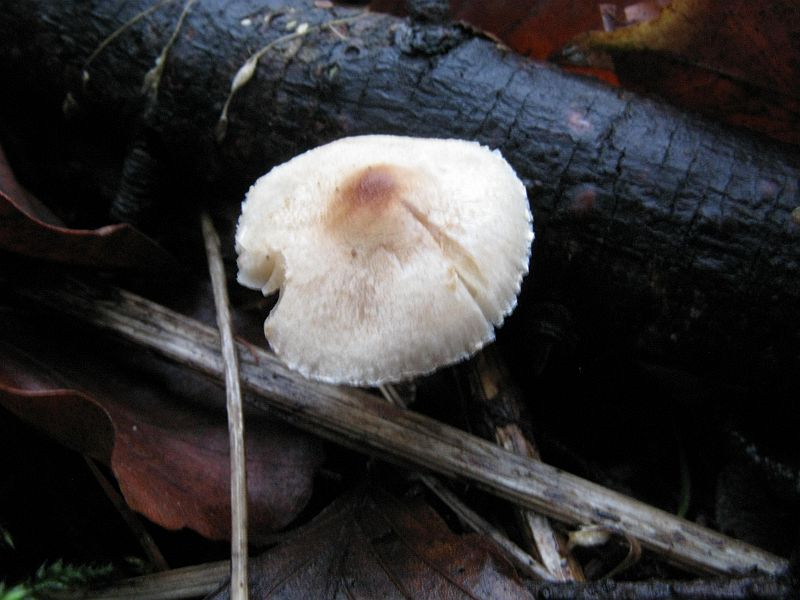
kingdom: Fungi
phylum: Basidiomycota
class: Agaricomycetes
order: Agaricales
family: Agaricaceae
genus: Lepiota
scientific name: Lepiota
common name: parasolhat
